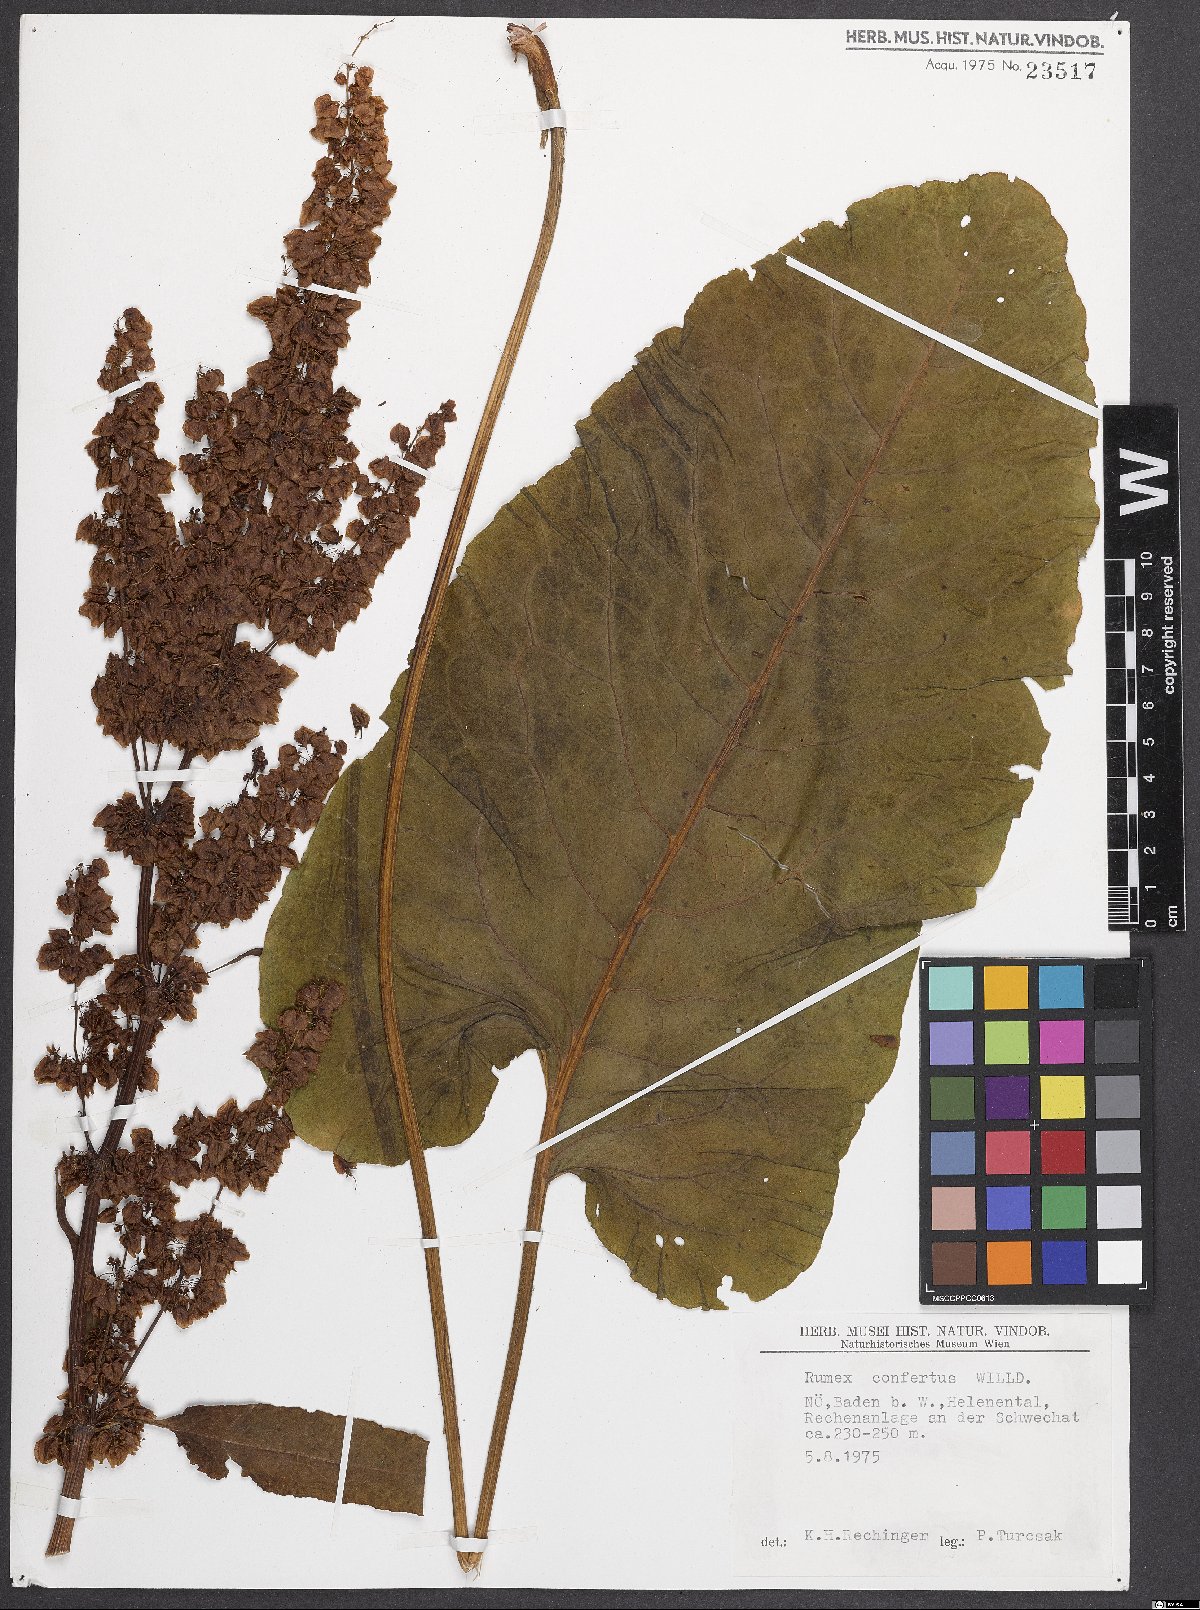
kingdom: Plantae
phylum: Tracheophyta
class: Magnoliopsida
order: Caryophyllales
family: Polygonaceae
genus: Rumex
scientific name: Rumex confertus
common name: Russian dock
